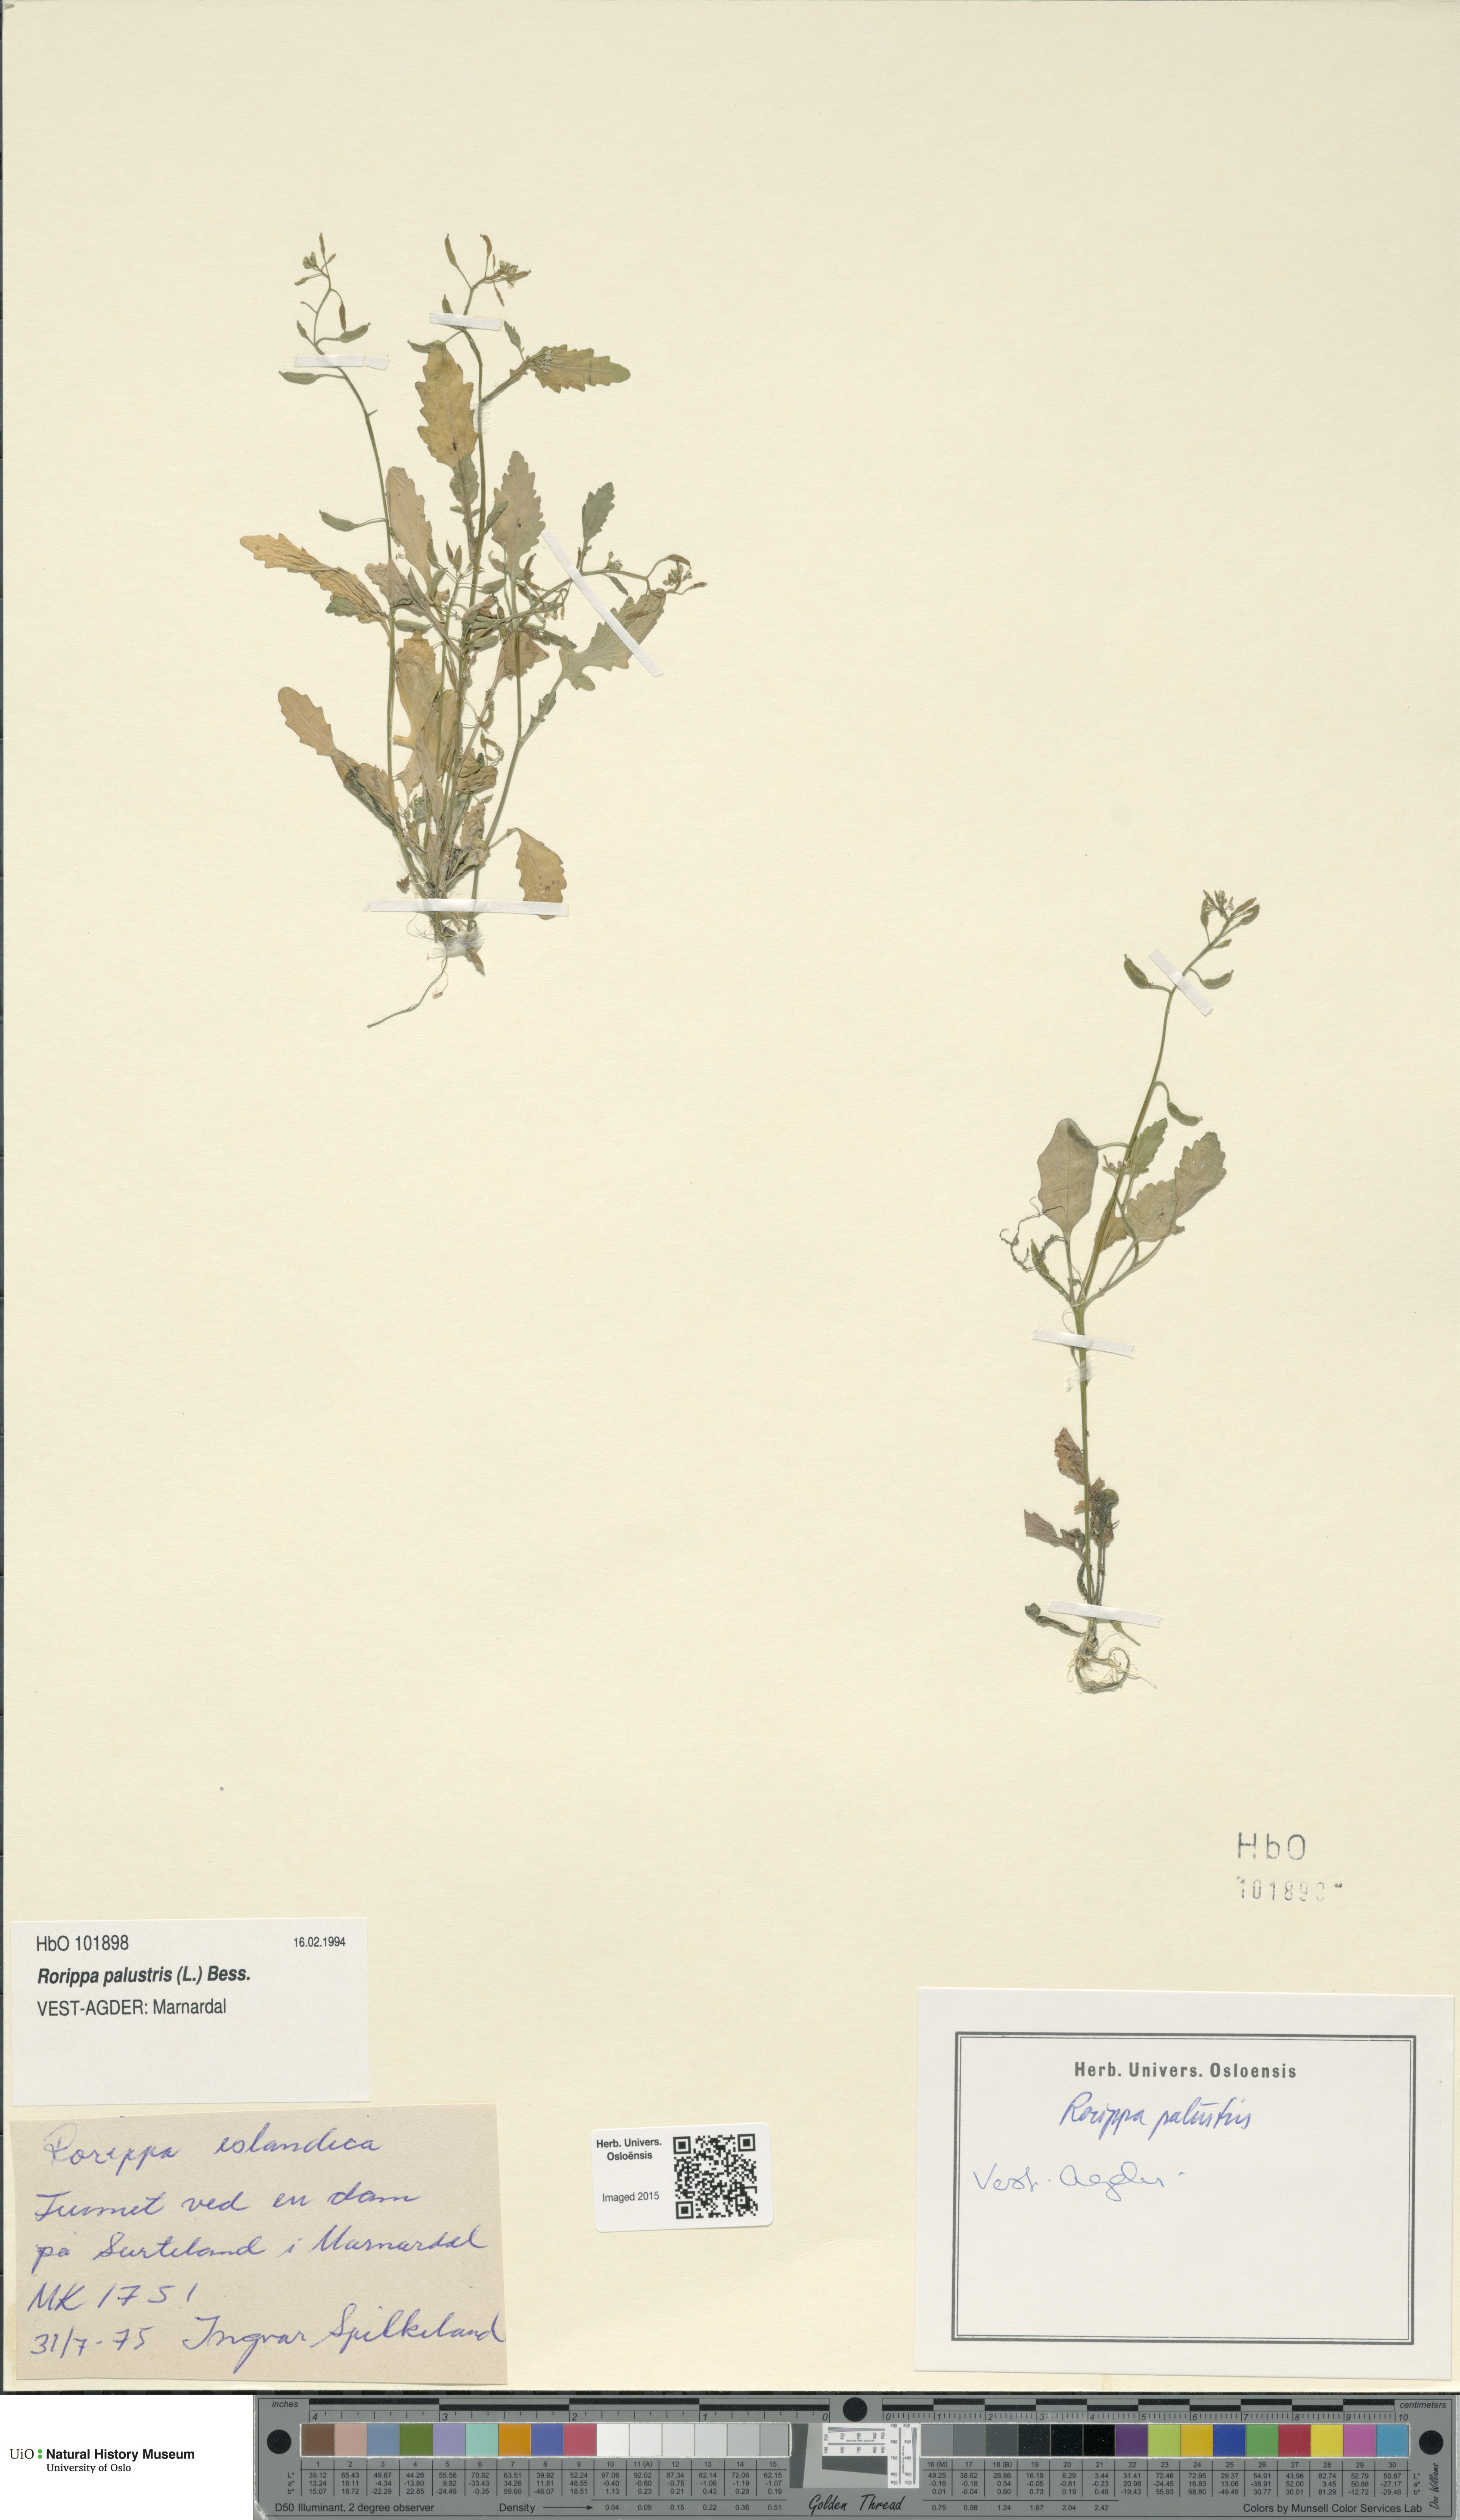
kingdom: Plantae
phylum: Tracheophyta
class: Magnoliopsida
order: Brassicales
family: Brassicaceae
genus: Rorippa
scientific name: Rorippa palustris
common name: Marsh yellow-cress
